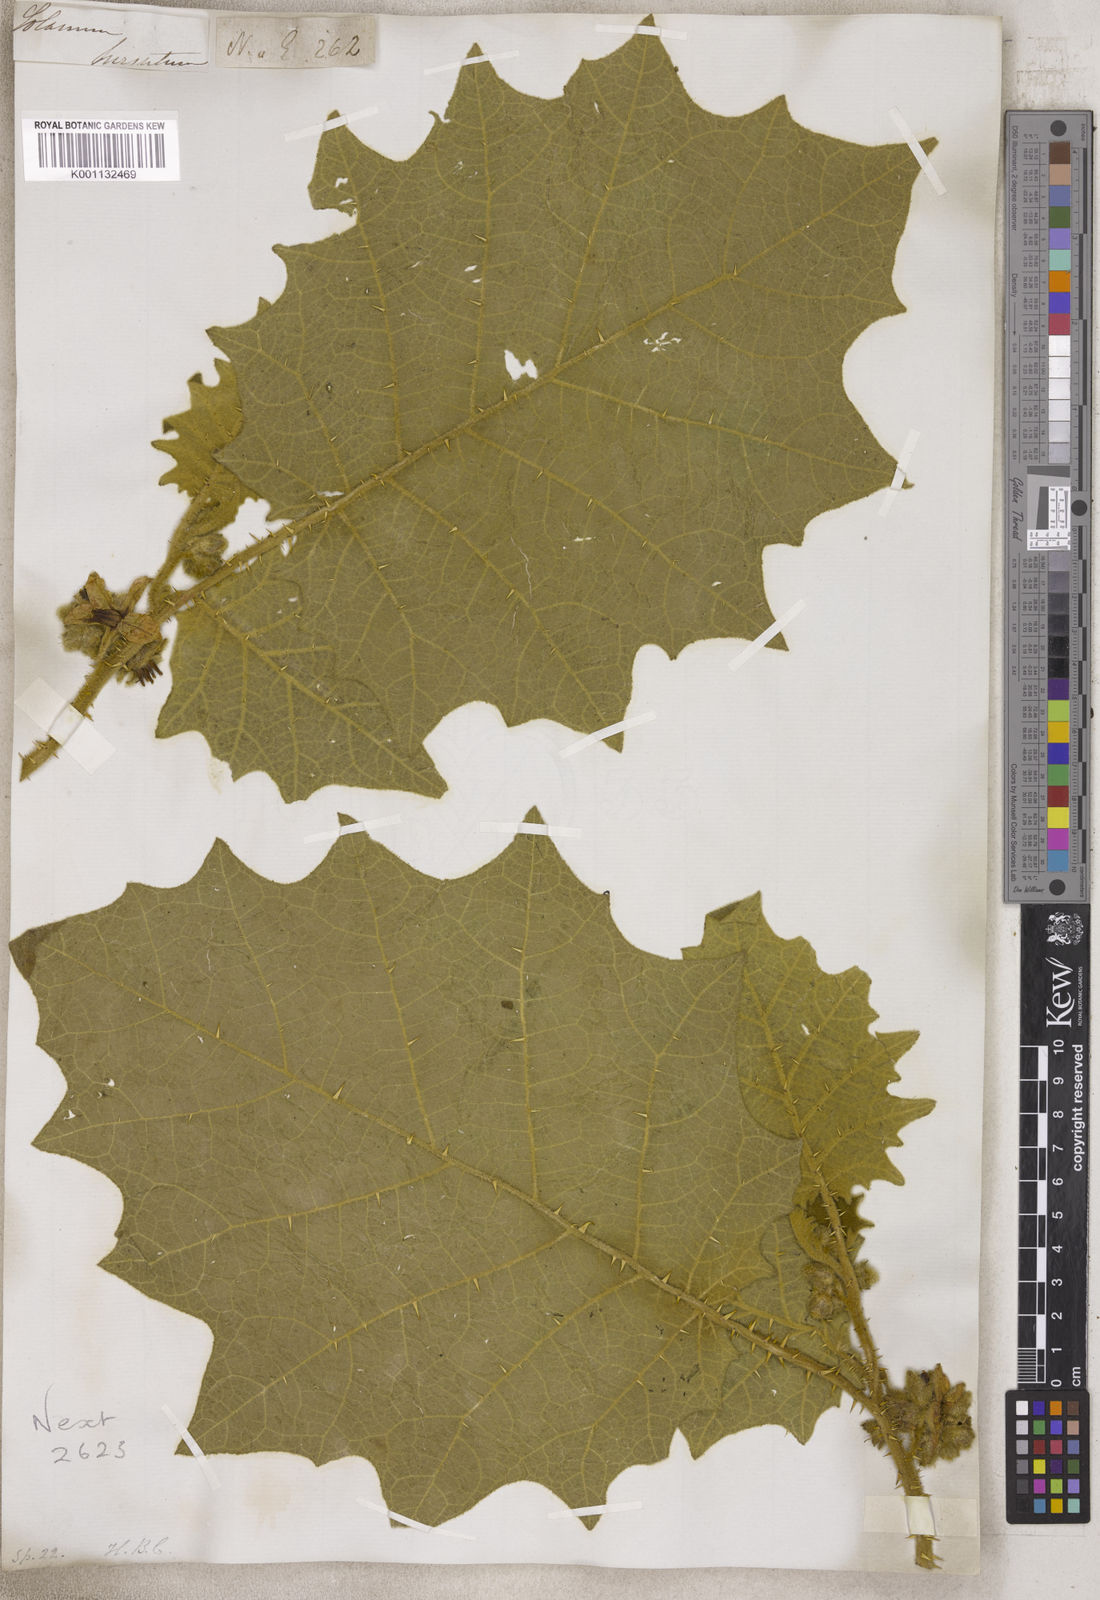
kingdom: Plantae
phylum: Tracheophyta
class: Magnoliopsida
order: Solanales
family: Solanaceae
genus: Solanum
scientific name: Solanum
